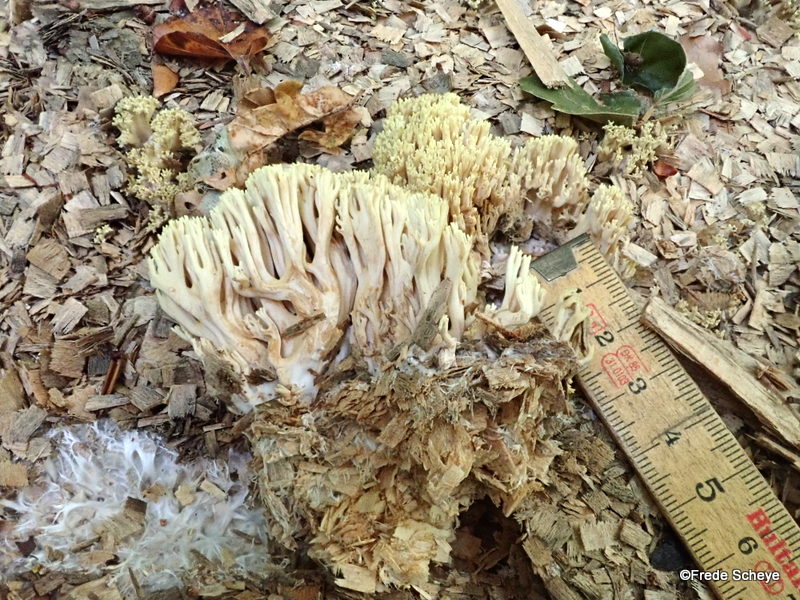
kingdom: Fungi
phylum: Basidiomycota
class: Agaricomycetes
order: Gomphales
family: Gomphaceae
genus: Ramaria
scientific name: Ramaria stricta
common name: rank koralsvamp
